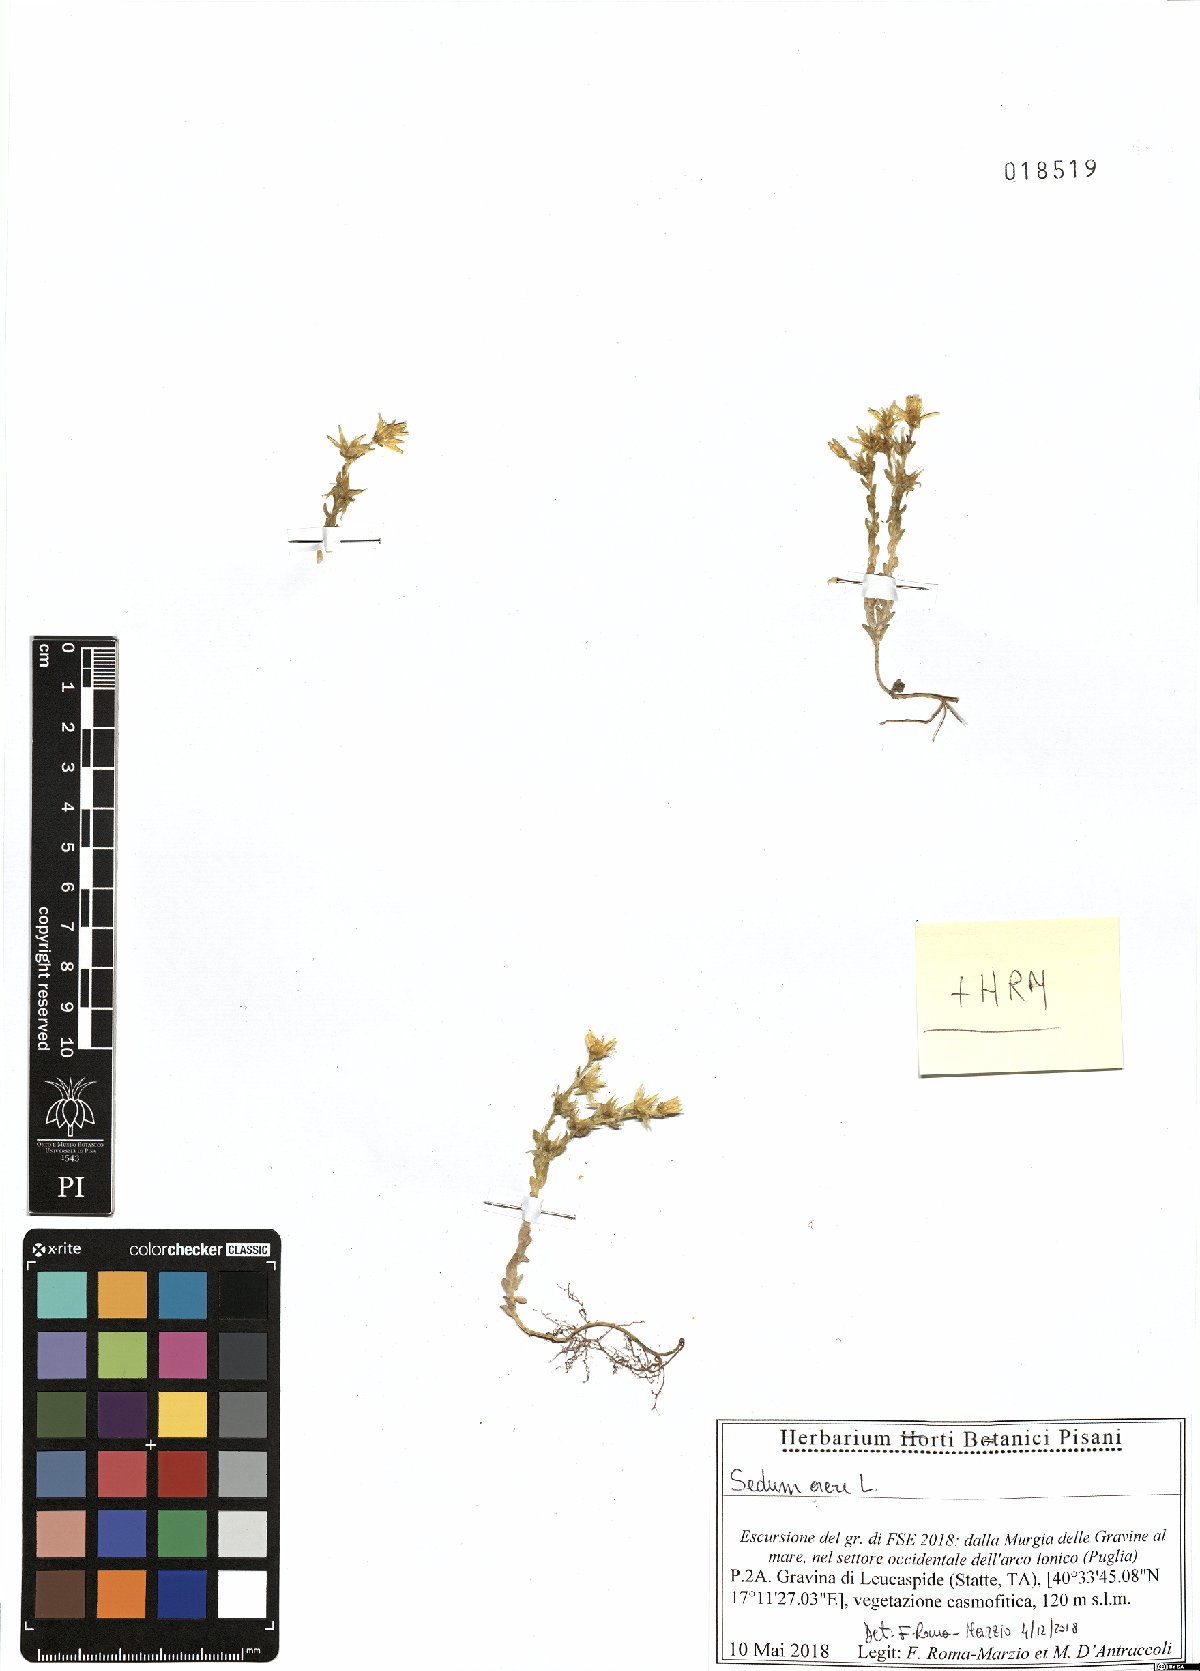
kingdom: Plantae
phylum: Tracheophyta
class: Magnoliopsida
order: Saxifragales
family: Crassulaceae
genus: Sedum
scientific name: Sedum acre
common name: Biting stonecrop
